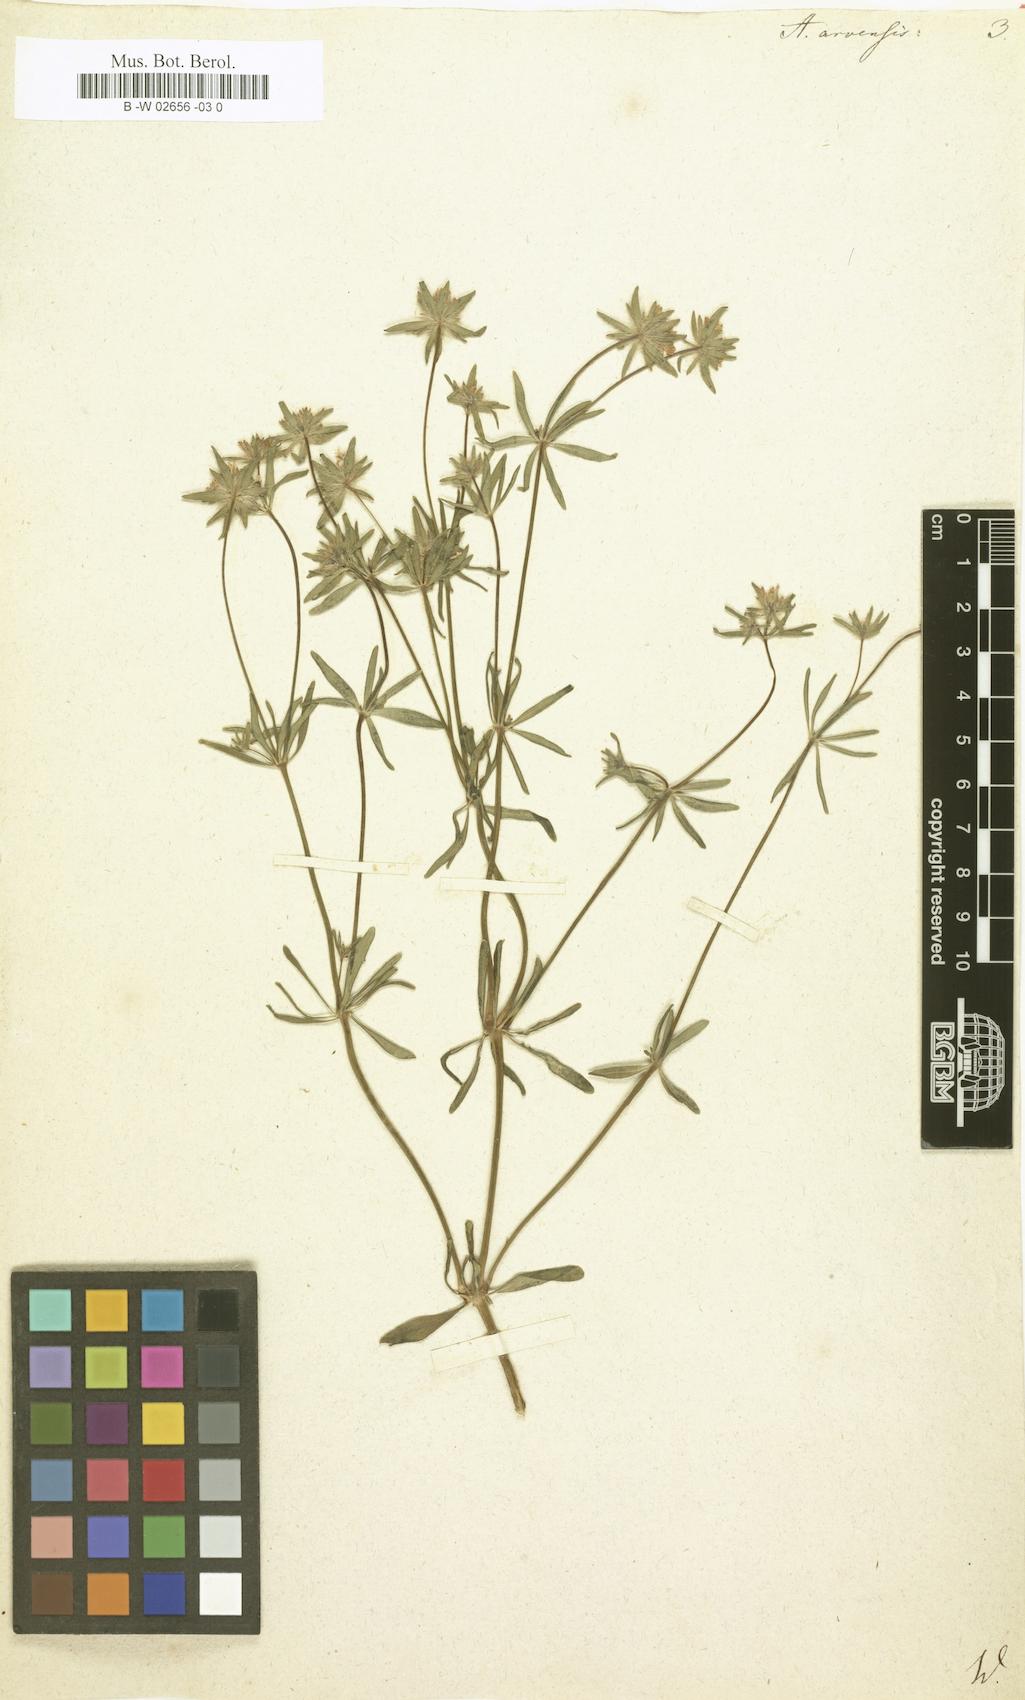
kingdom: Plantae
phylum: Tracheophyta
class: Magnoliopsida
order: Gentianales
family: Rubiaceae
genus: Asperula
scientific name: Asperula arvensis
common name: Blue woodruff
